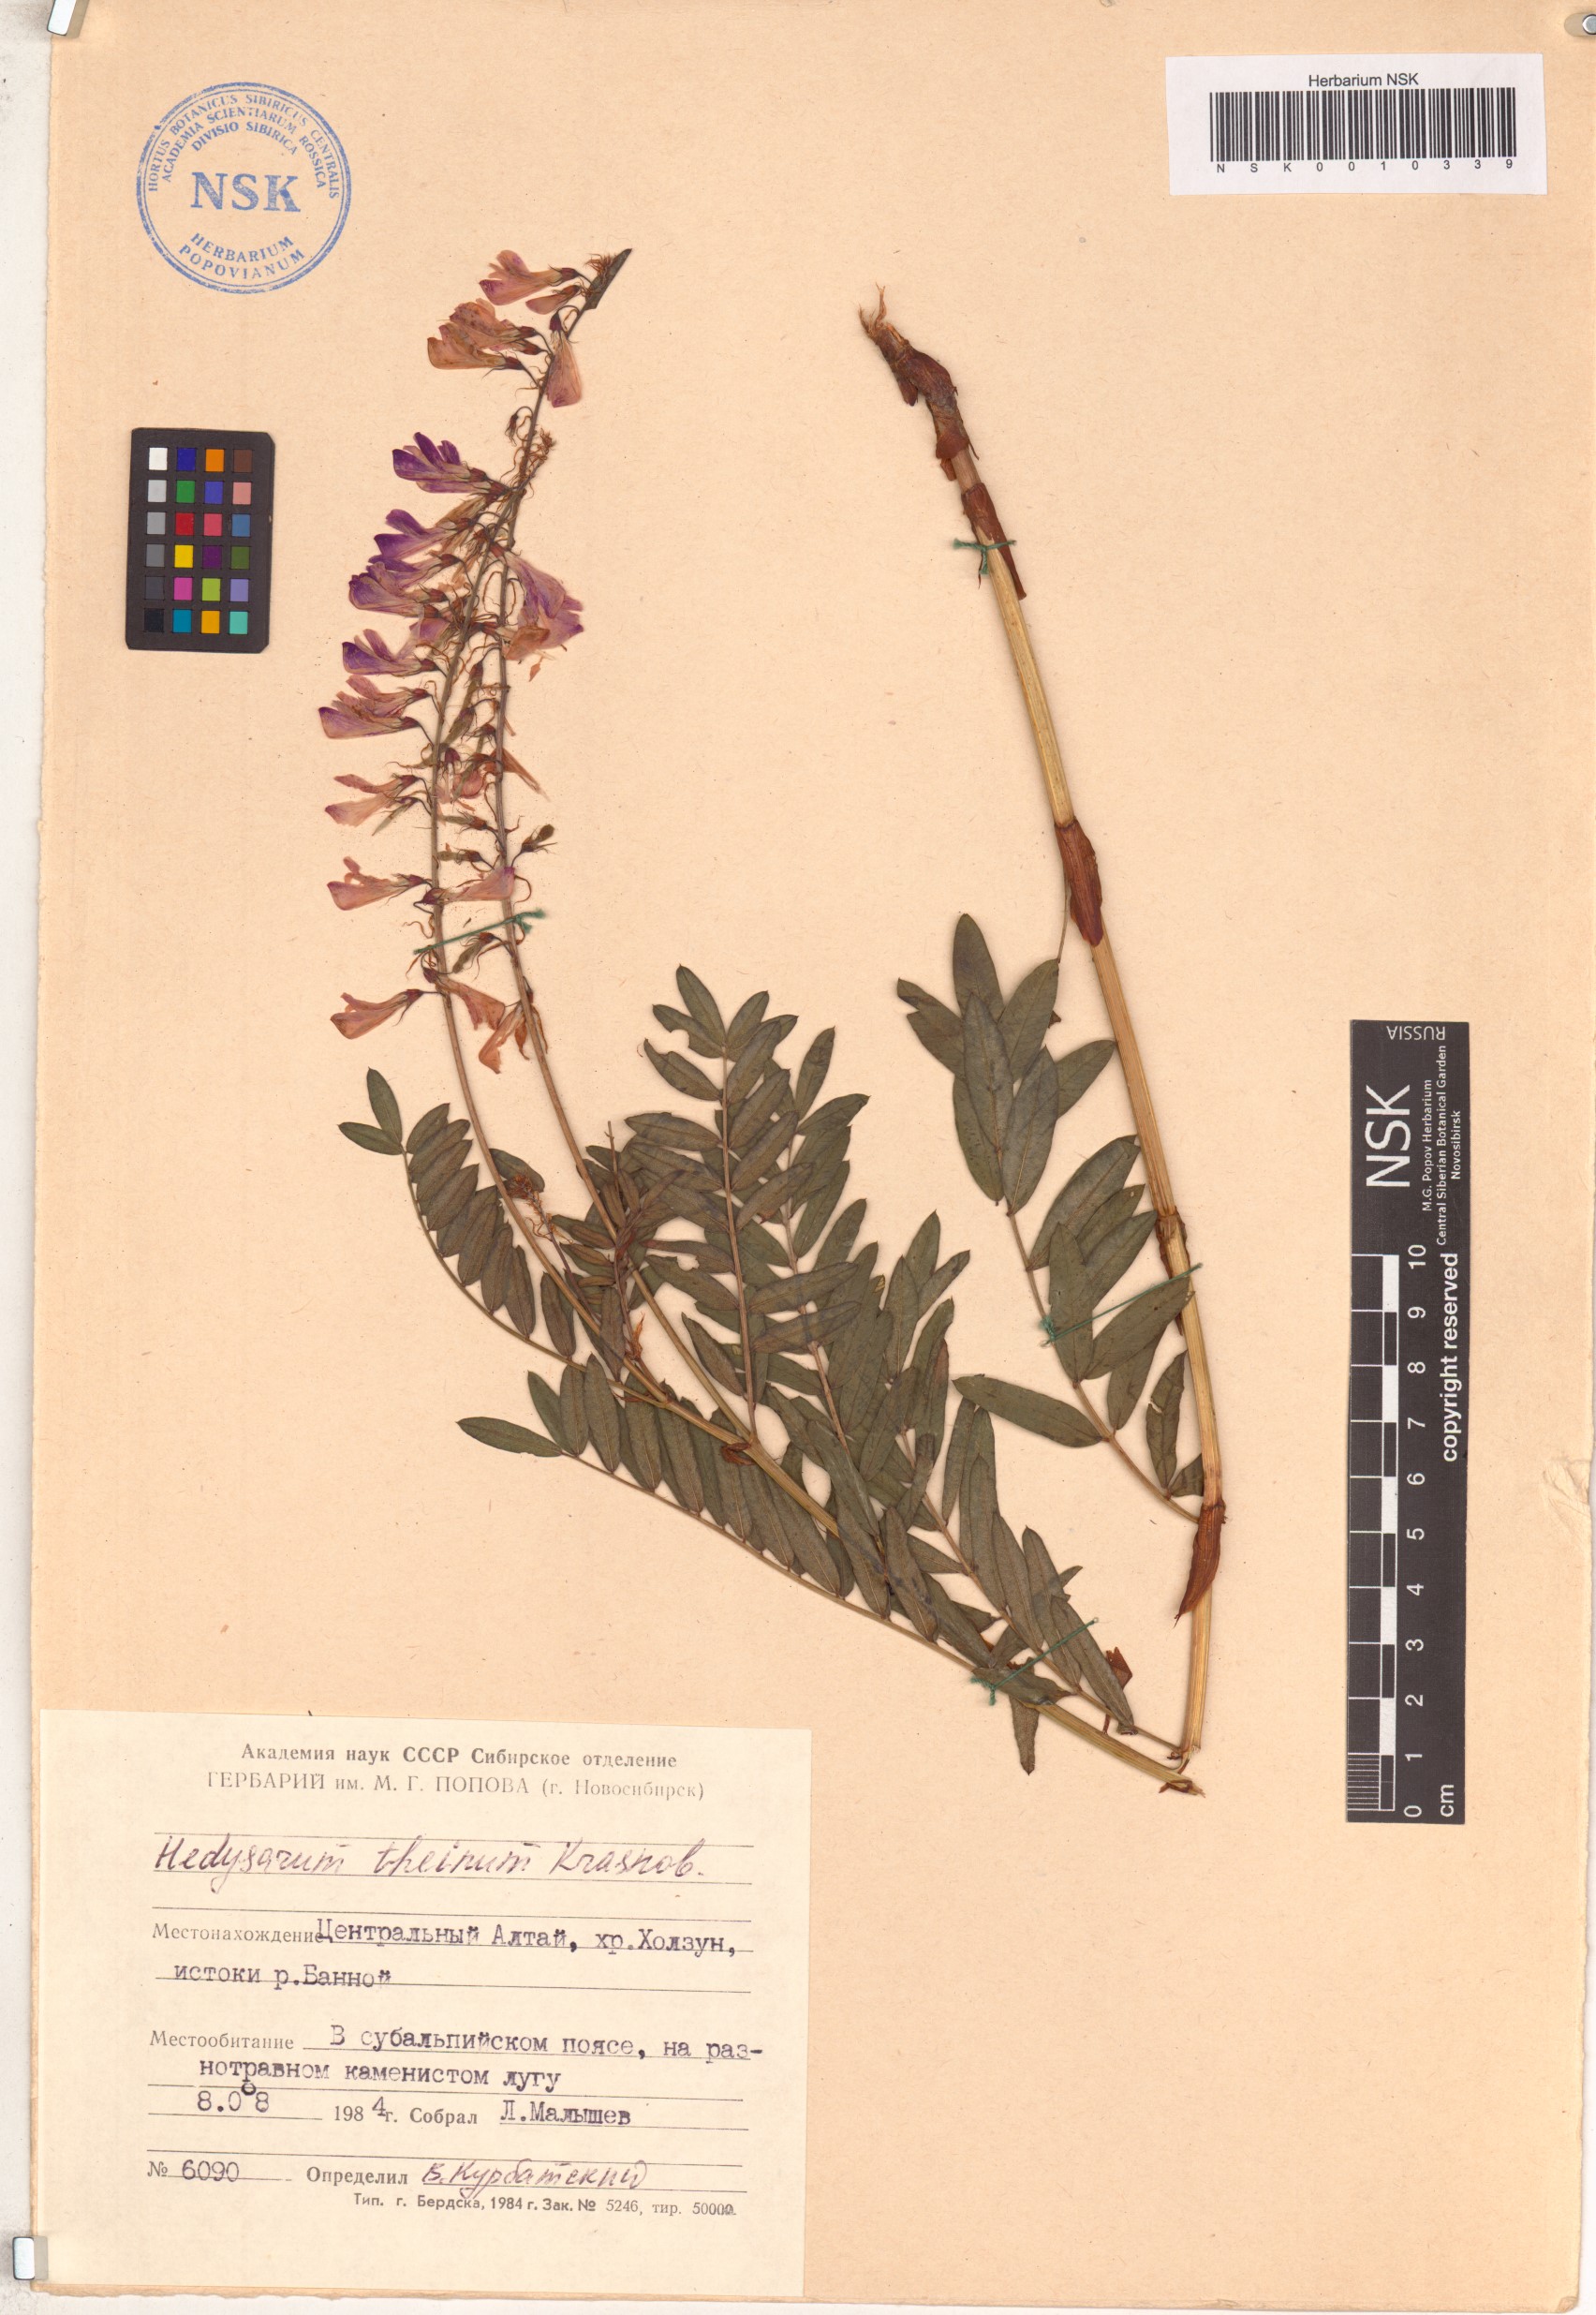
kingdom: Plantae
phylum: Tracheophyta
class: Magnoliopsida
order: Fabales
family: Fabaceae
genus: Hedysarum
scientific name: Hedysarum theinum
